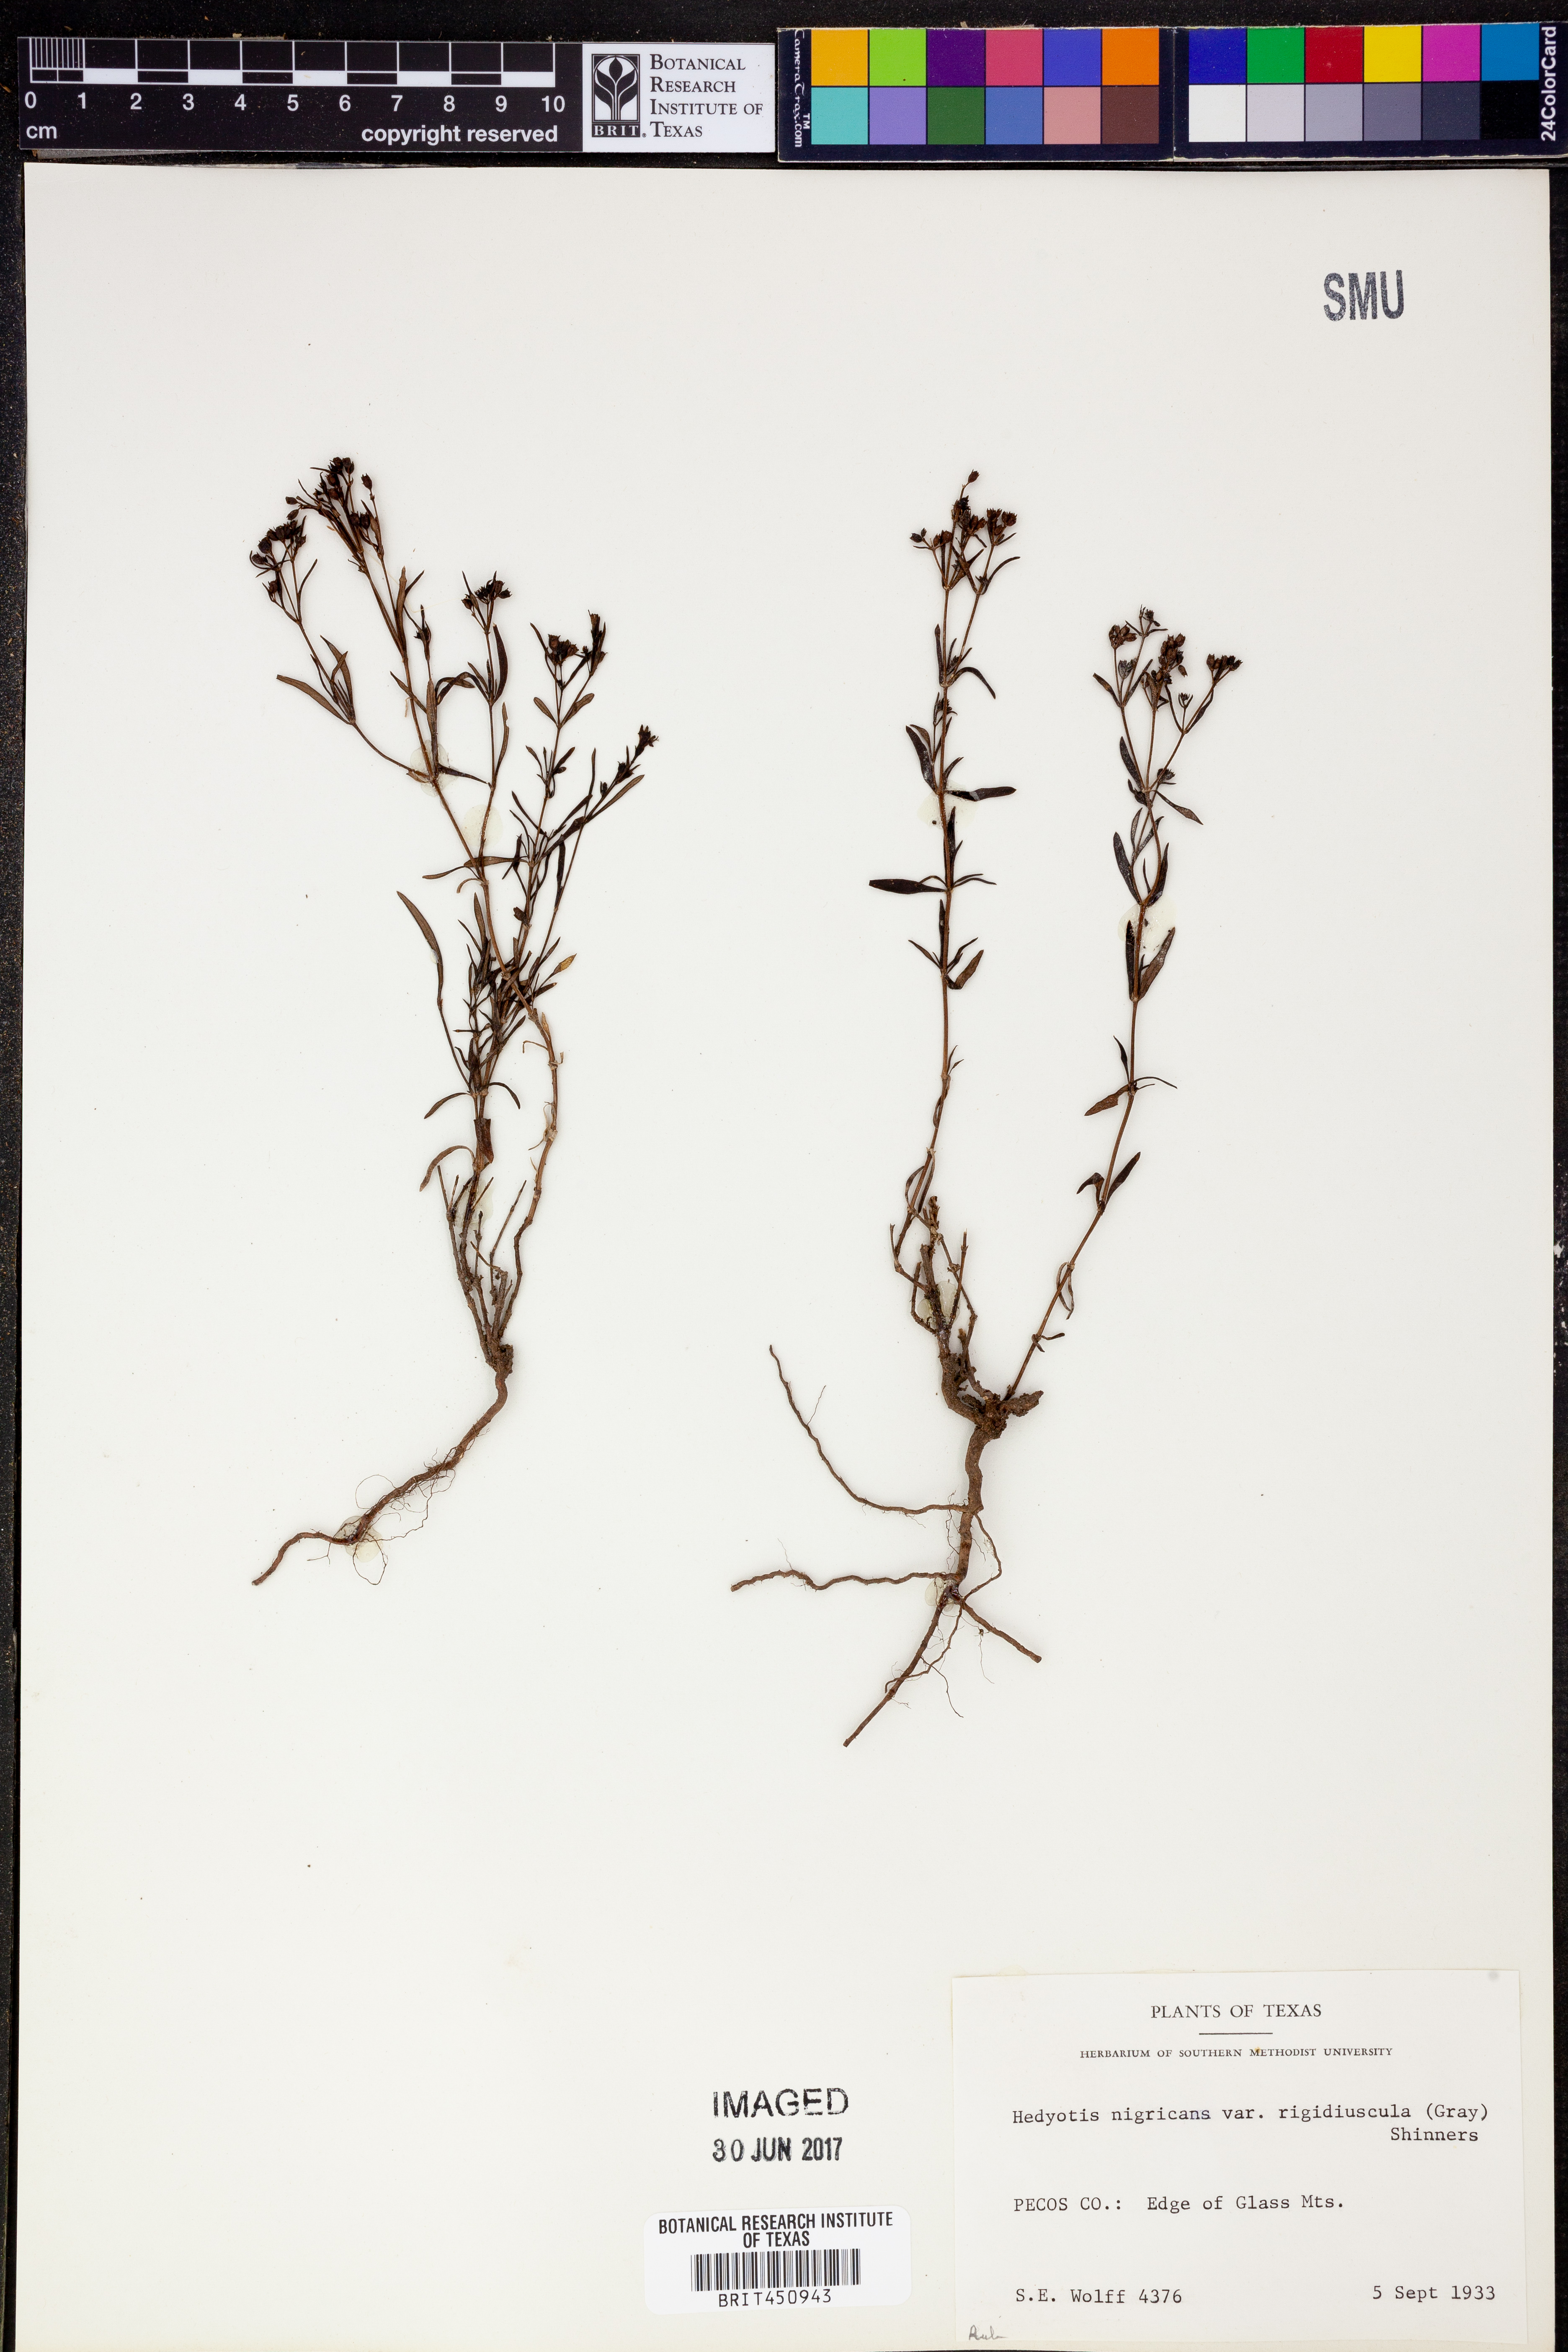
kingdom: Plantae
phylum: Tracheophyta
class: Magnoliopsida
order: Gentianales
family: Rubiaceae
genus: Houstonia
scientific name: Houstonia purpurea
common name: Summer bluet
